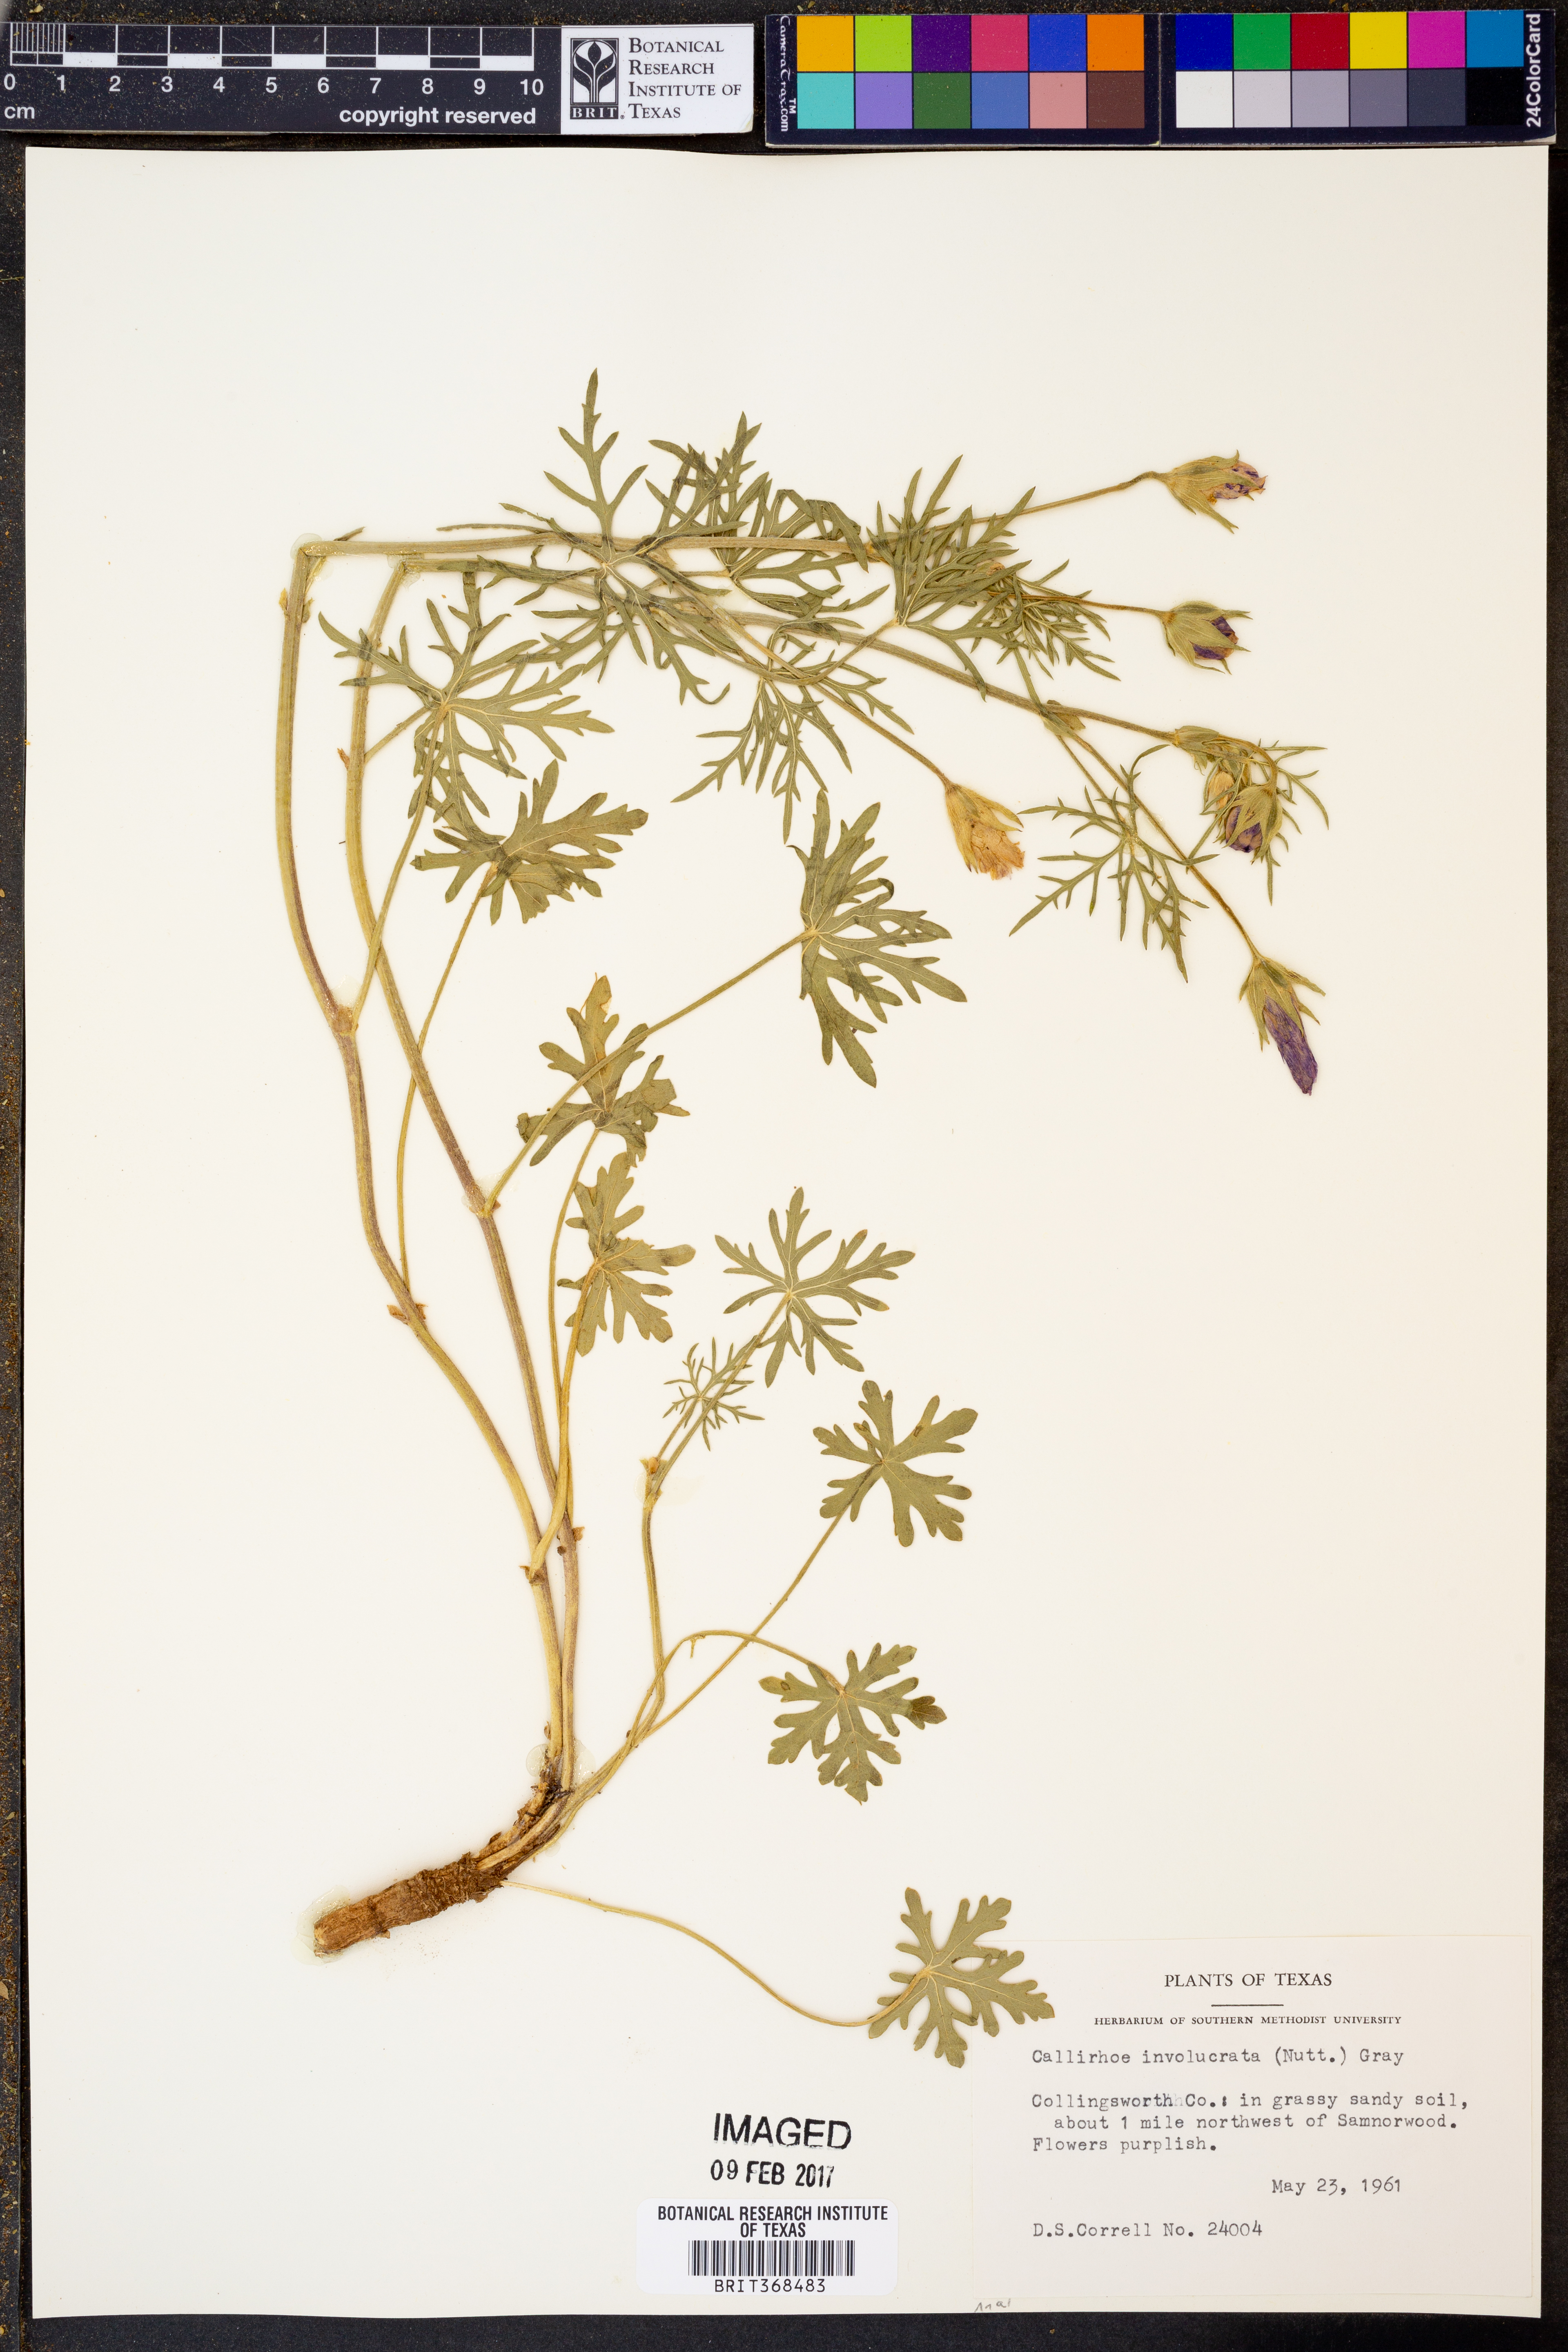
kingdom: Plantae
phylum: Tracheophyta
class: Magnoliopsida
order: Malvales
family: Malvaceae
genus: Callirhoe
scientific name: Callirhoe involucrata
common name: Purple poppy-mallow
